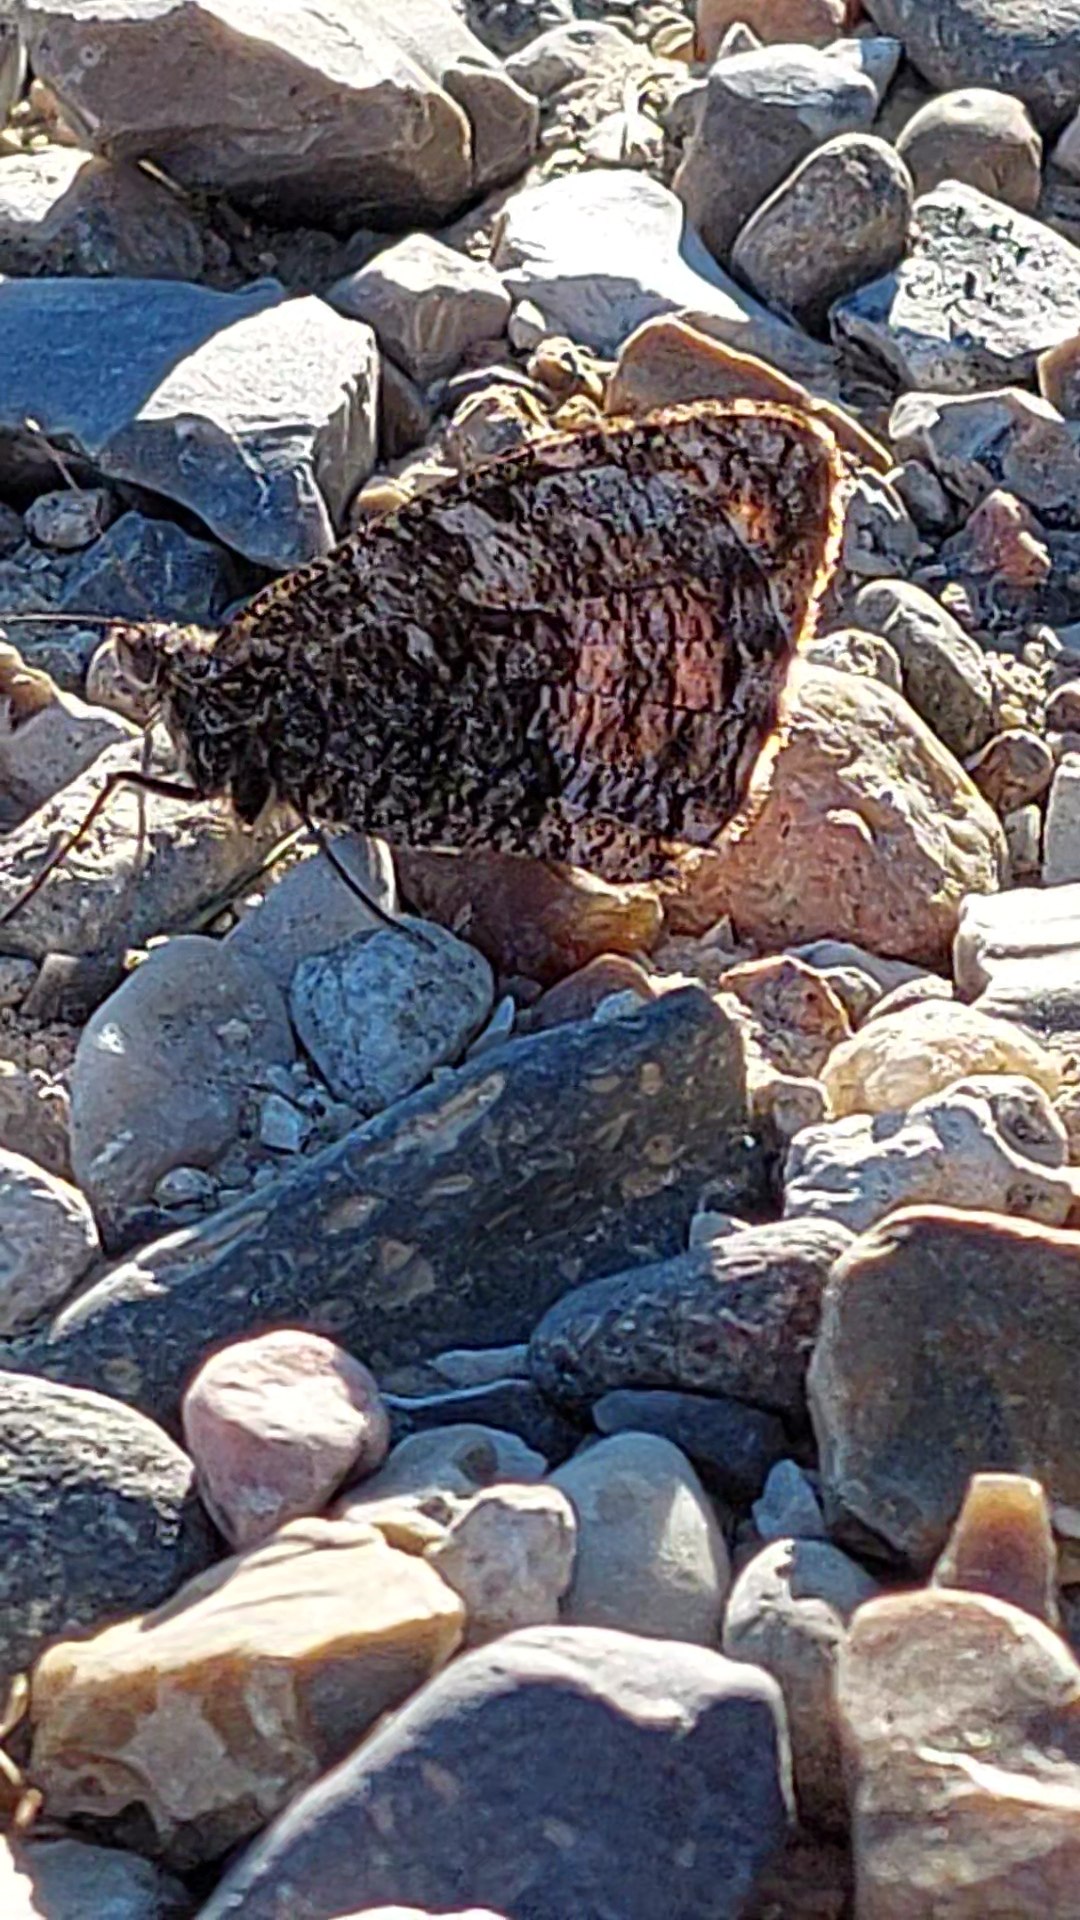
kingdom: Animalia
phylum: Arthropoda
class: Insecta
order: Lepidoptera
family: Nymphalidae
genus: Hipparchia
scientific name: Hipparchia semele
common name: Sandrandøje
